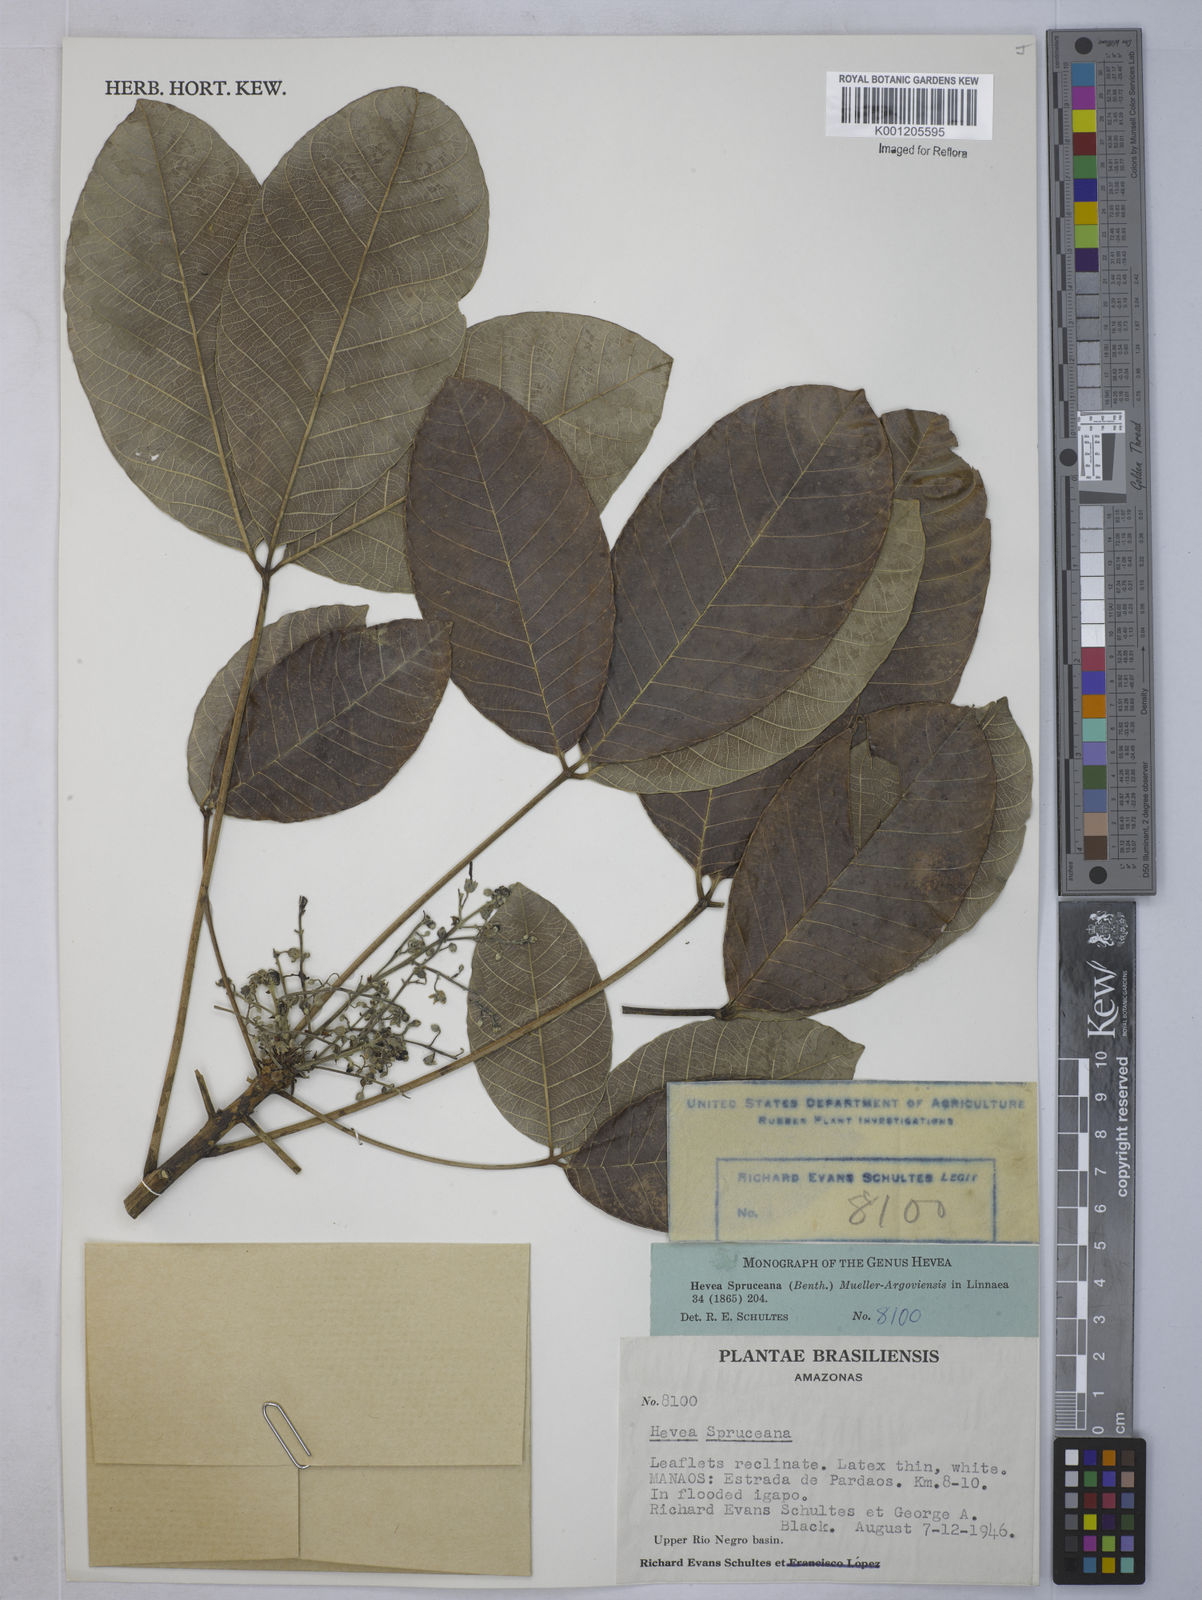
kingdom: Plantae
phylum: Tracheophyta
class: Magnoliopsida
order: Malpighiales
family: Euphorbiaceae
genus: Hevea
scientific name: Hevea
